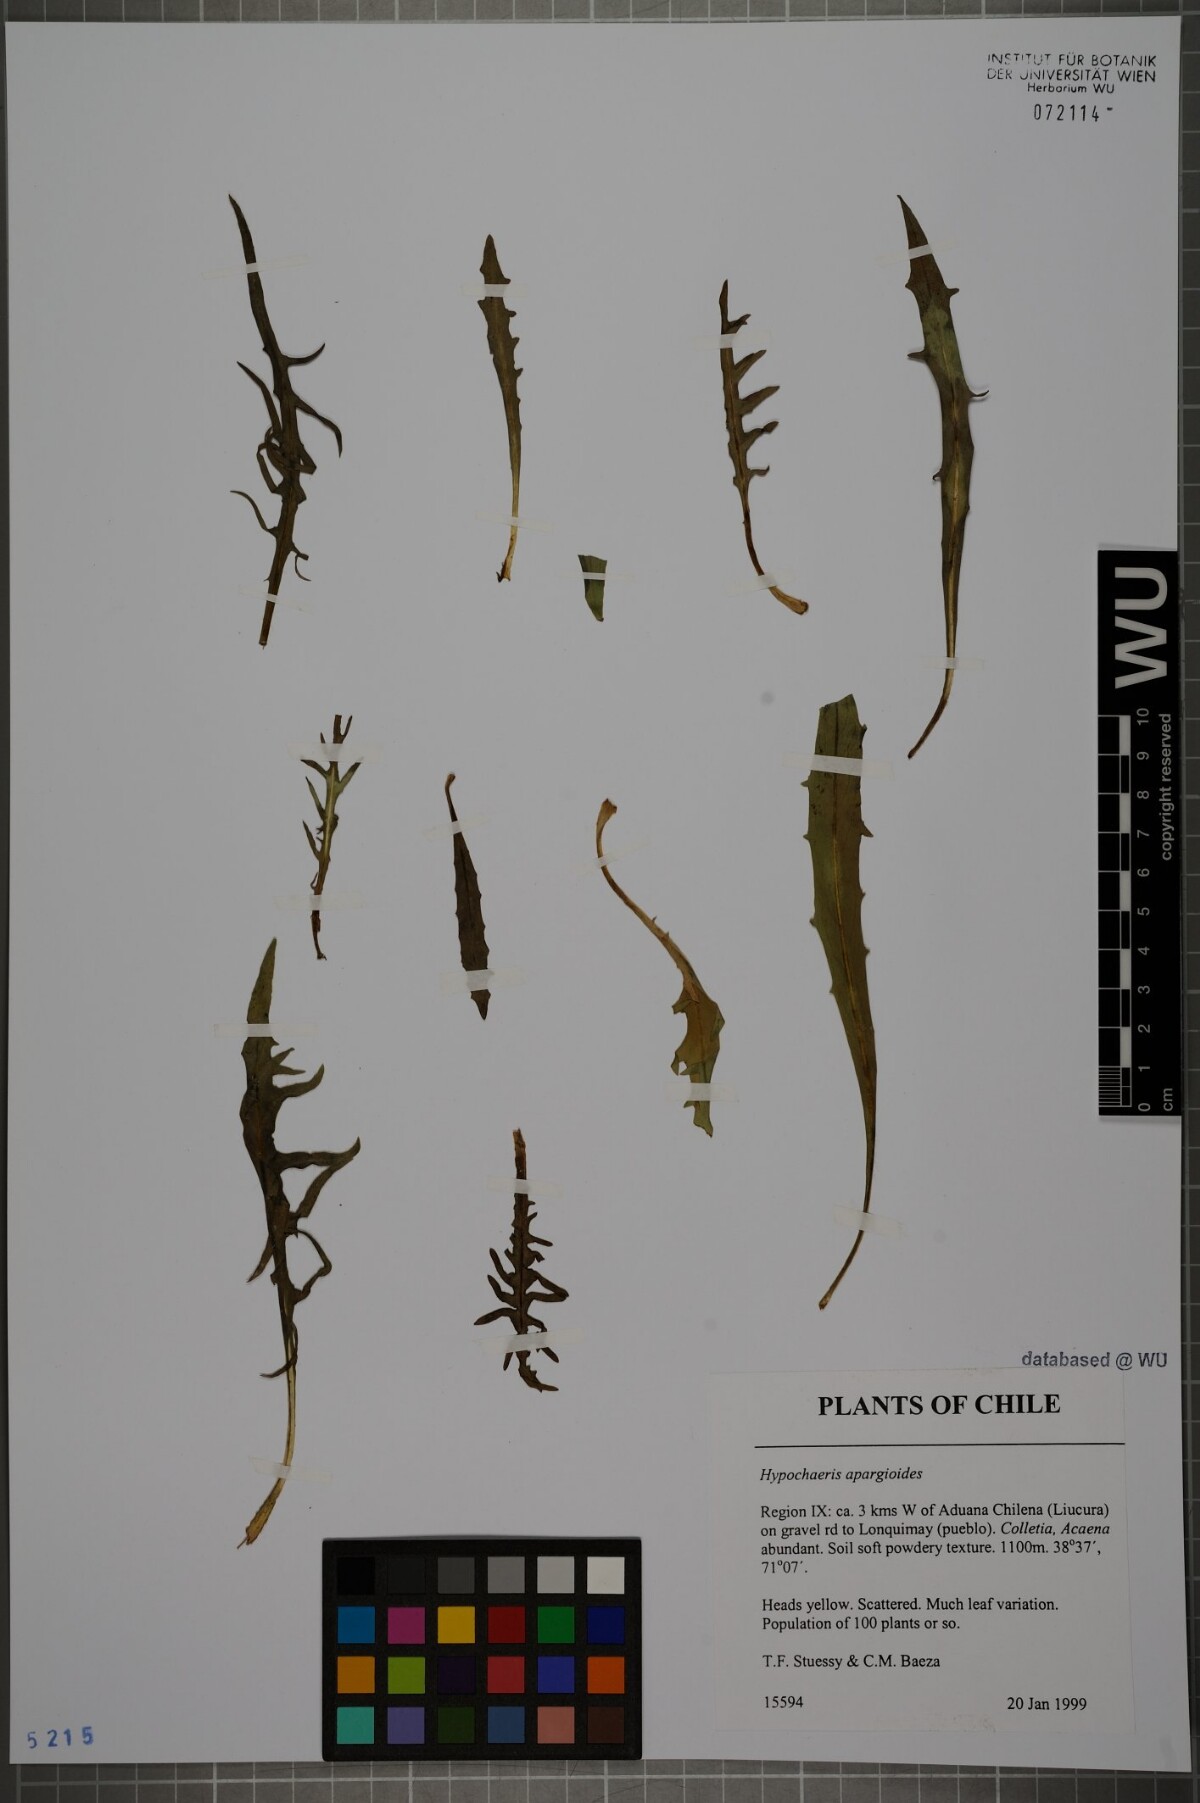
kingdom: Plantae
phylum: Tracheophyta
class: Magnoliopsida
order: Asterales
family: Asteraceae
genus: Hypochaeris
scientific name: Hypochaeris apargioides
